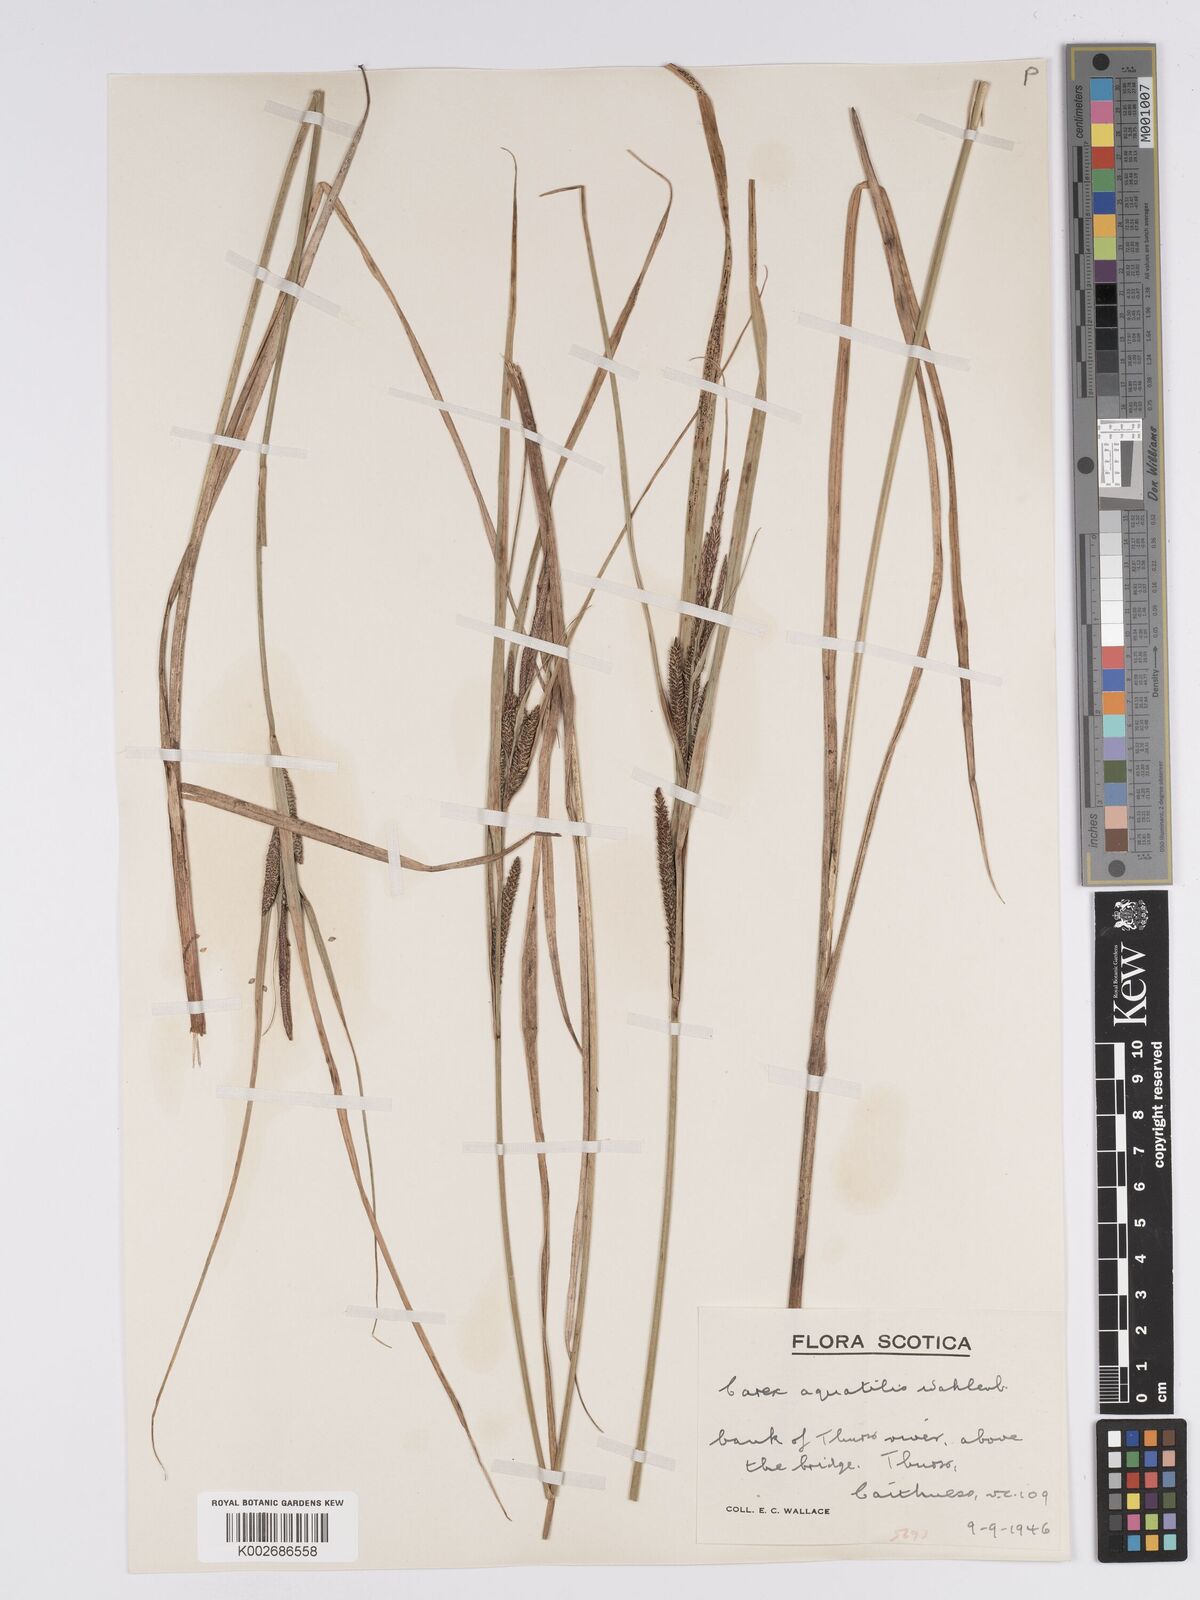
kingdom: Plantae
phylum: Tracheophyta
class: Liliopsida
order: Poales
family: Cyperaceae
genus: Carex
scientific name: Carex aquatilis
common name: Water sedge
